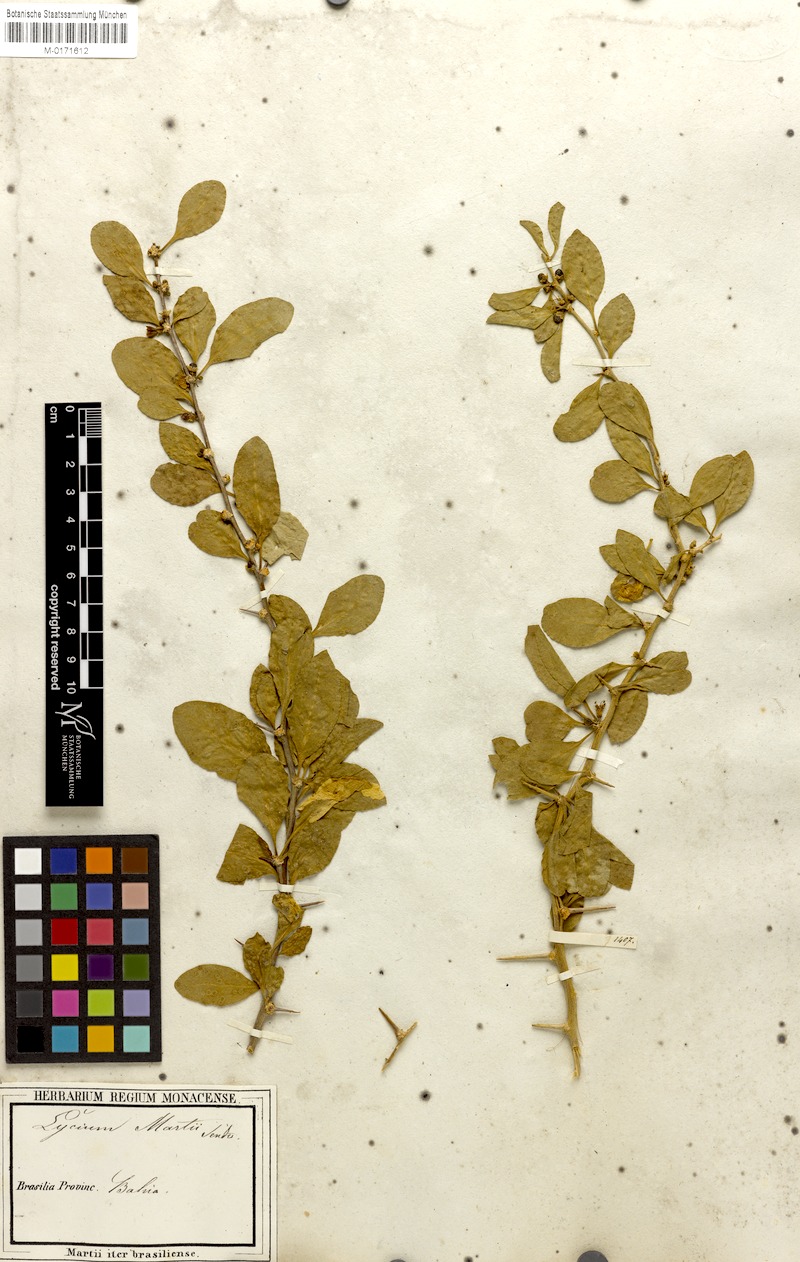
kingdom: Plantae
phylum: Tracheophyta
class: Magnoliopsida
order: Solanales
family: Solanaceae
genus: Lycium
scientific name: Lycium martii
